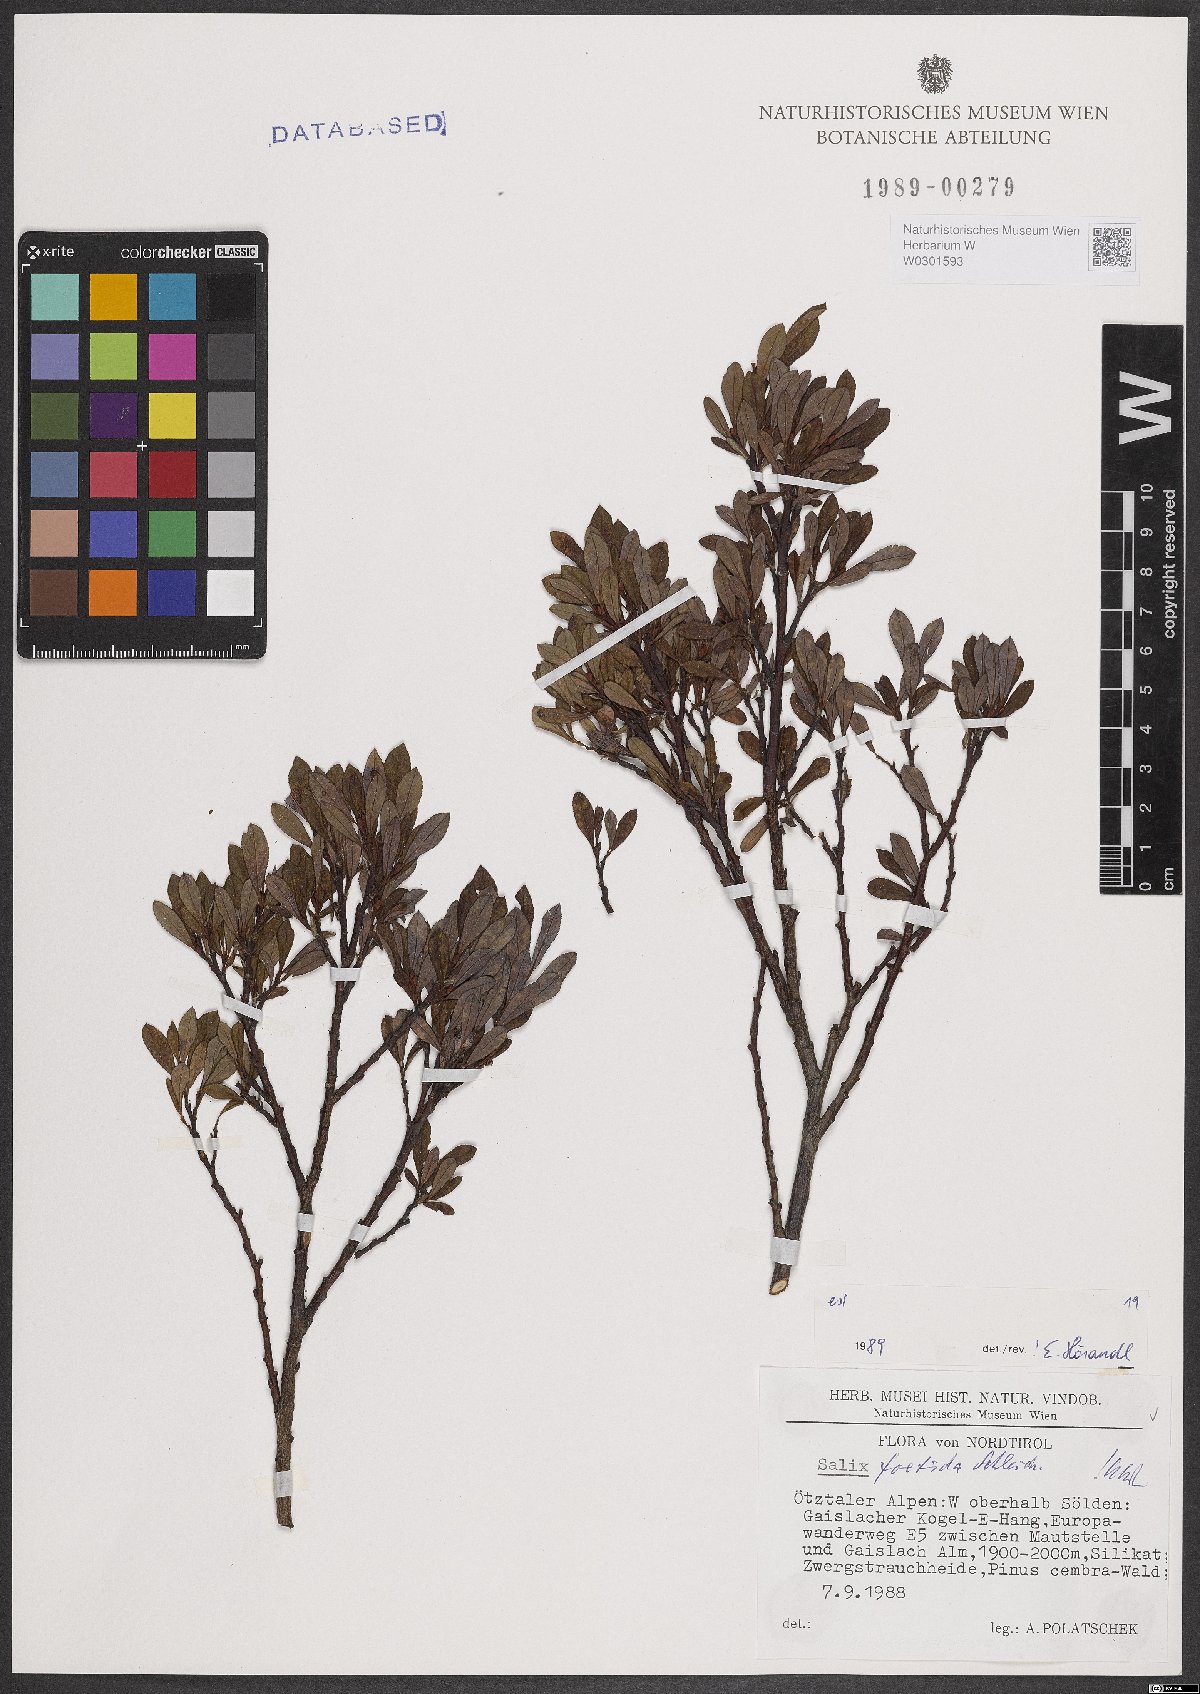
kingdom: Plantae
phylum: Tracheophyta
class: Magnoliopsida
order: Malpighiales
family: Salicaceae
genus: Salix
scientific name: Salix foetida
